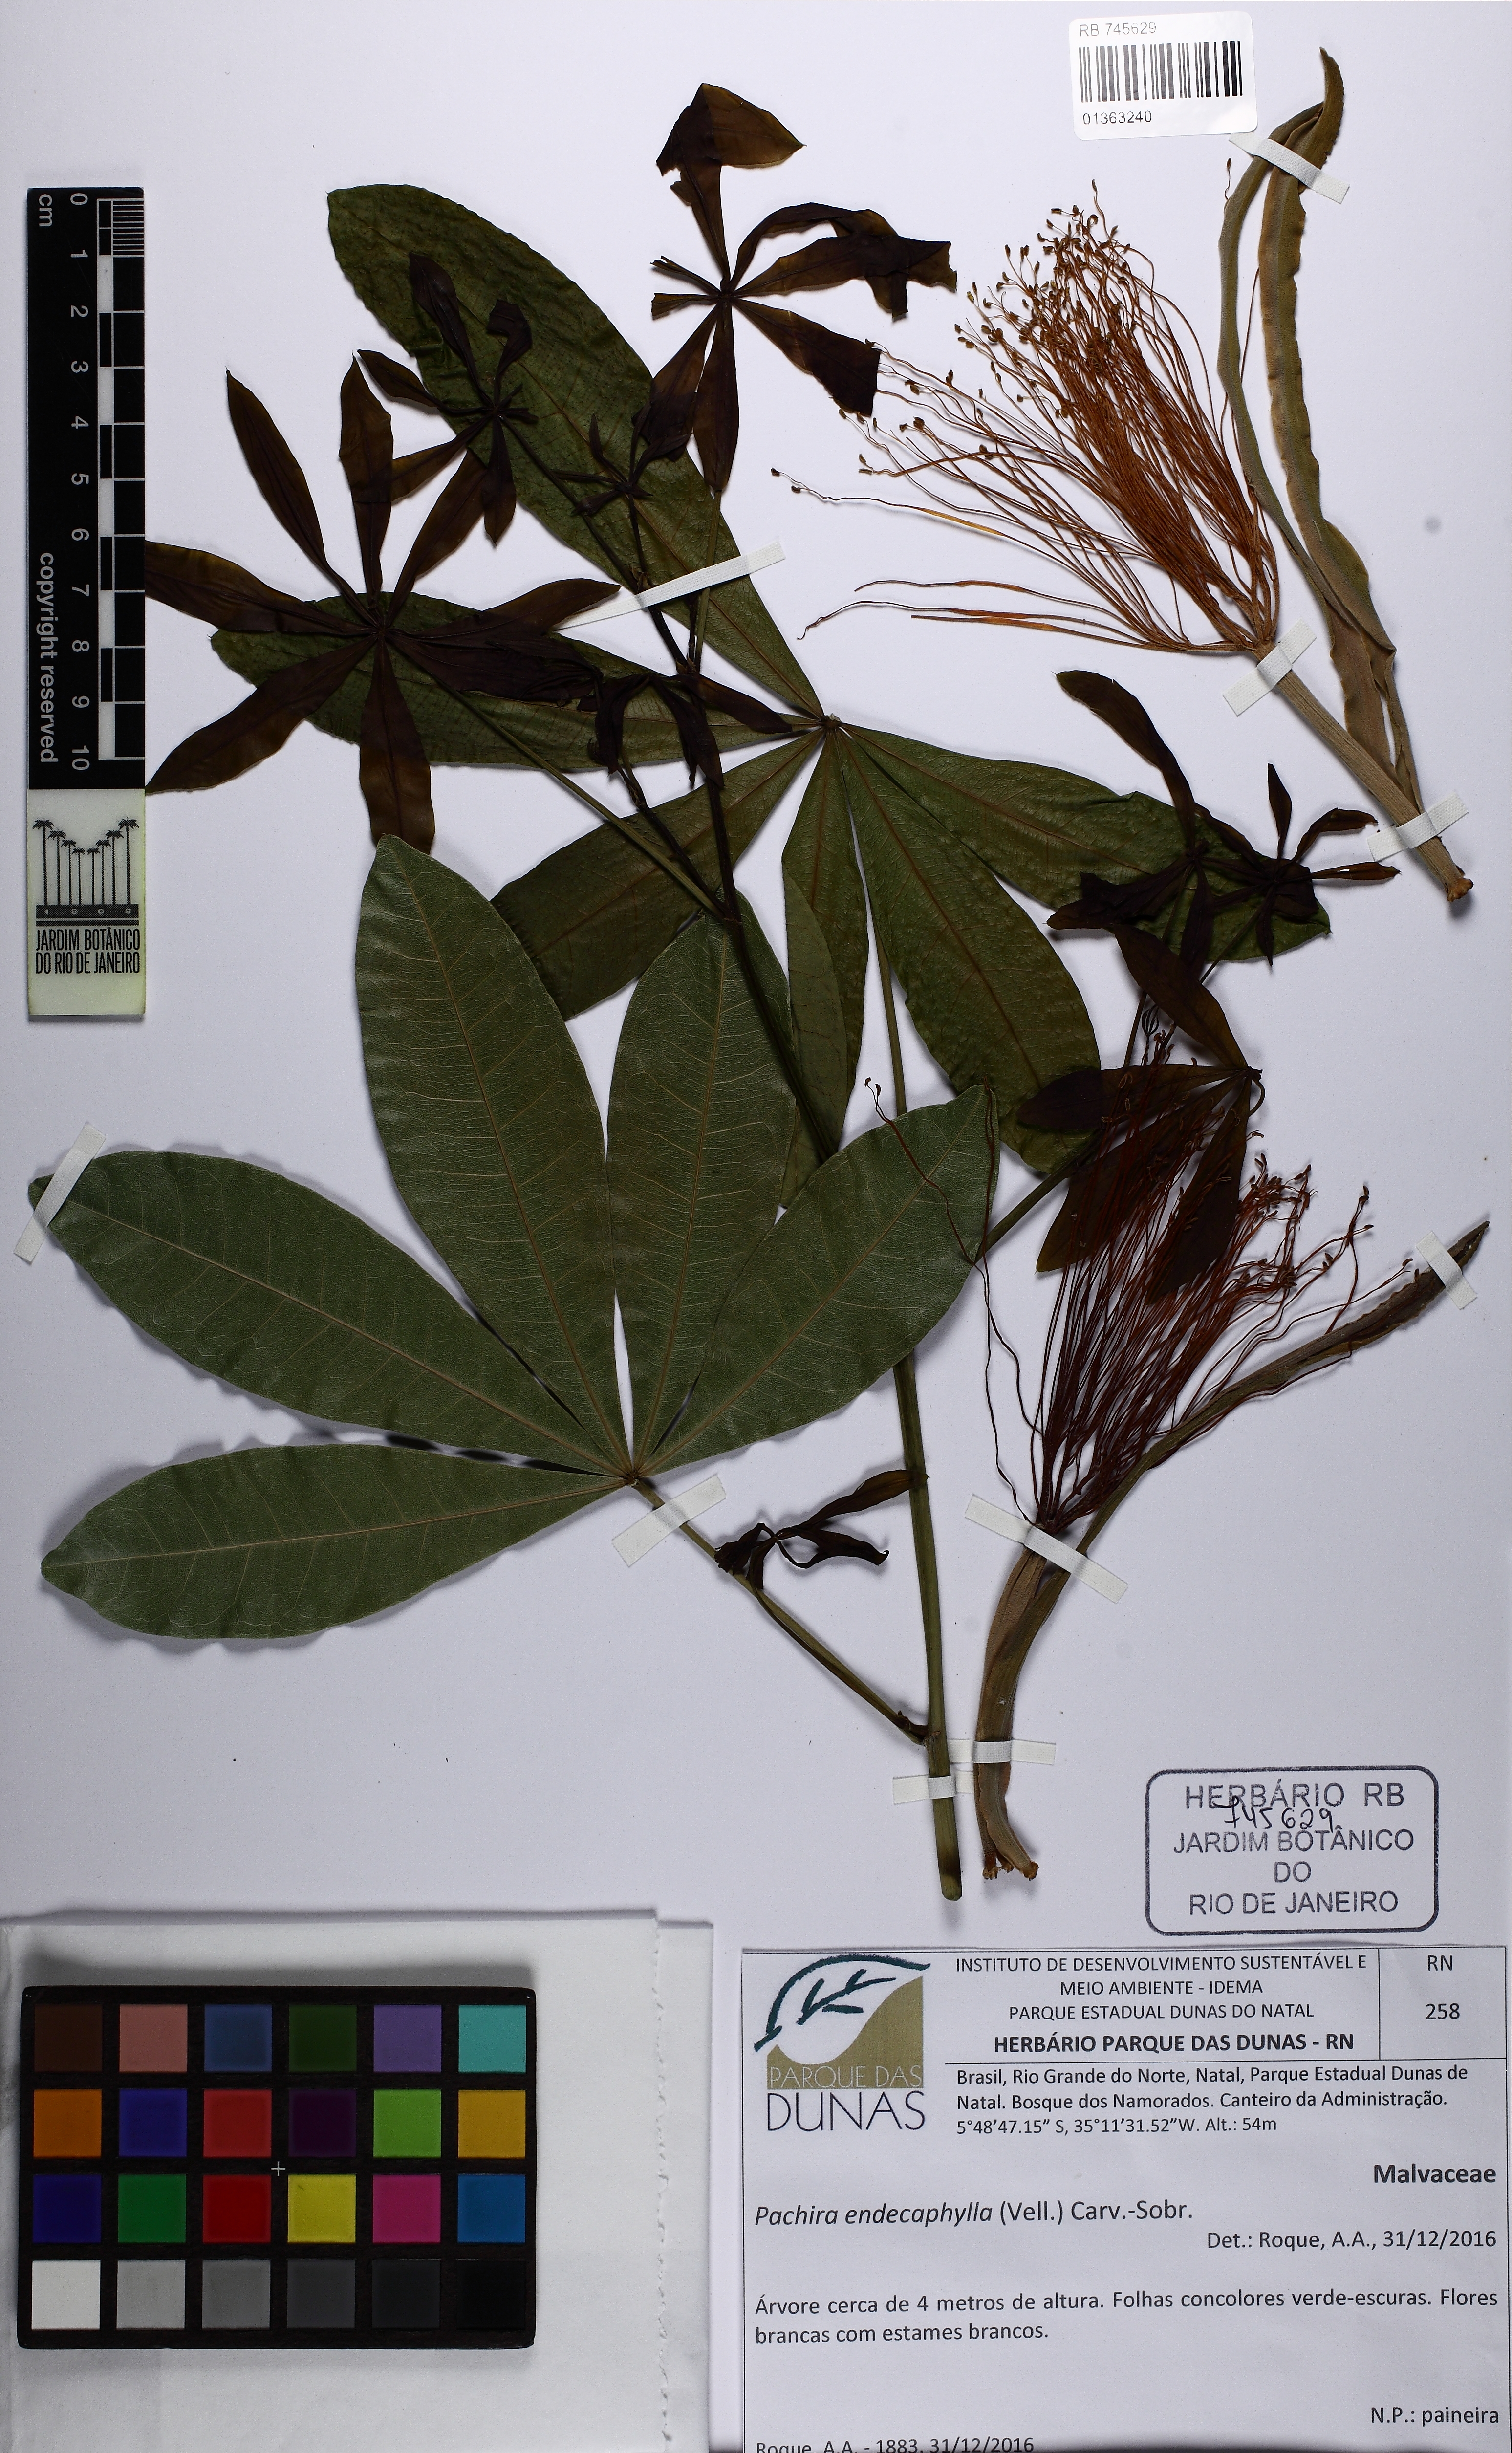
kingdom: Plantae
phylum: Tracheophyta
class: Magnoliopsida
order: Malvales
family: Malvaceae
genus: Pachira
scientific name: Pachira endecaphylla
